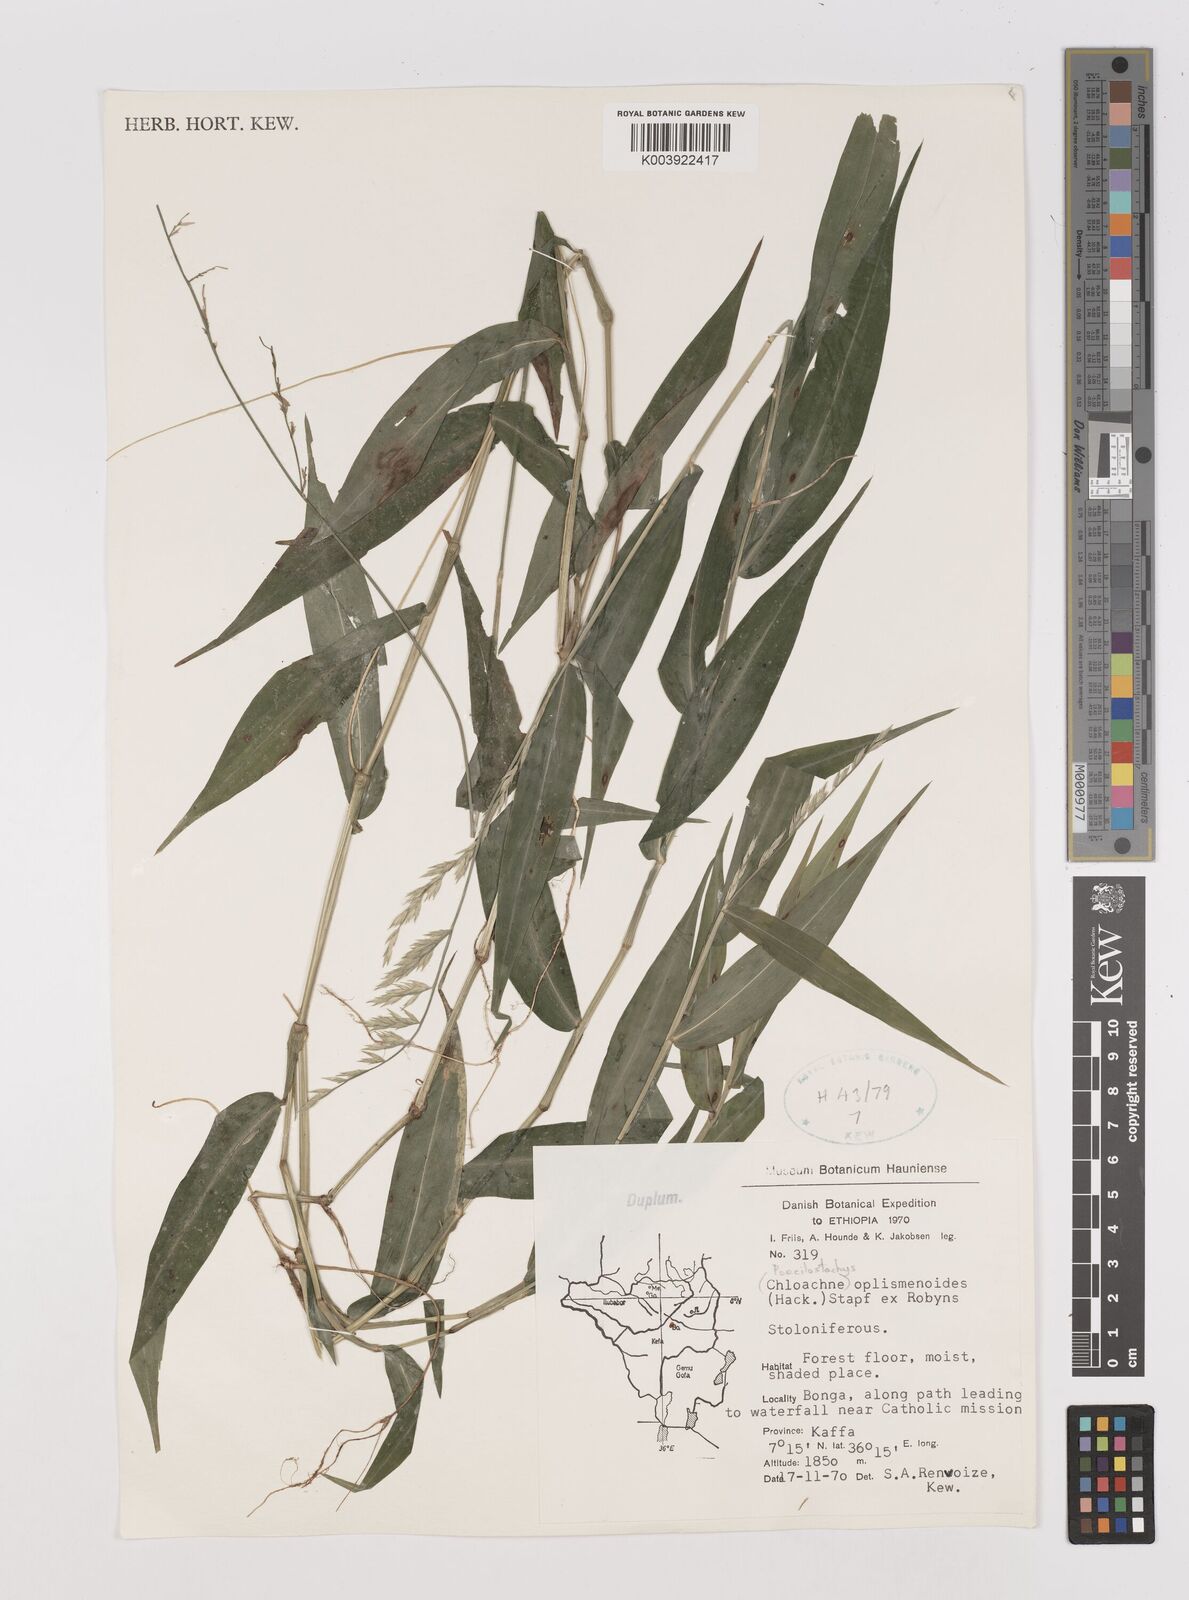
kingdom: Plantae
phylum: Tracheophyta
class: Liliopsida
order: Poales
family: Poaceae
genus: Poecilostachys
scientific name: Poecilostachys oplismenoides
